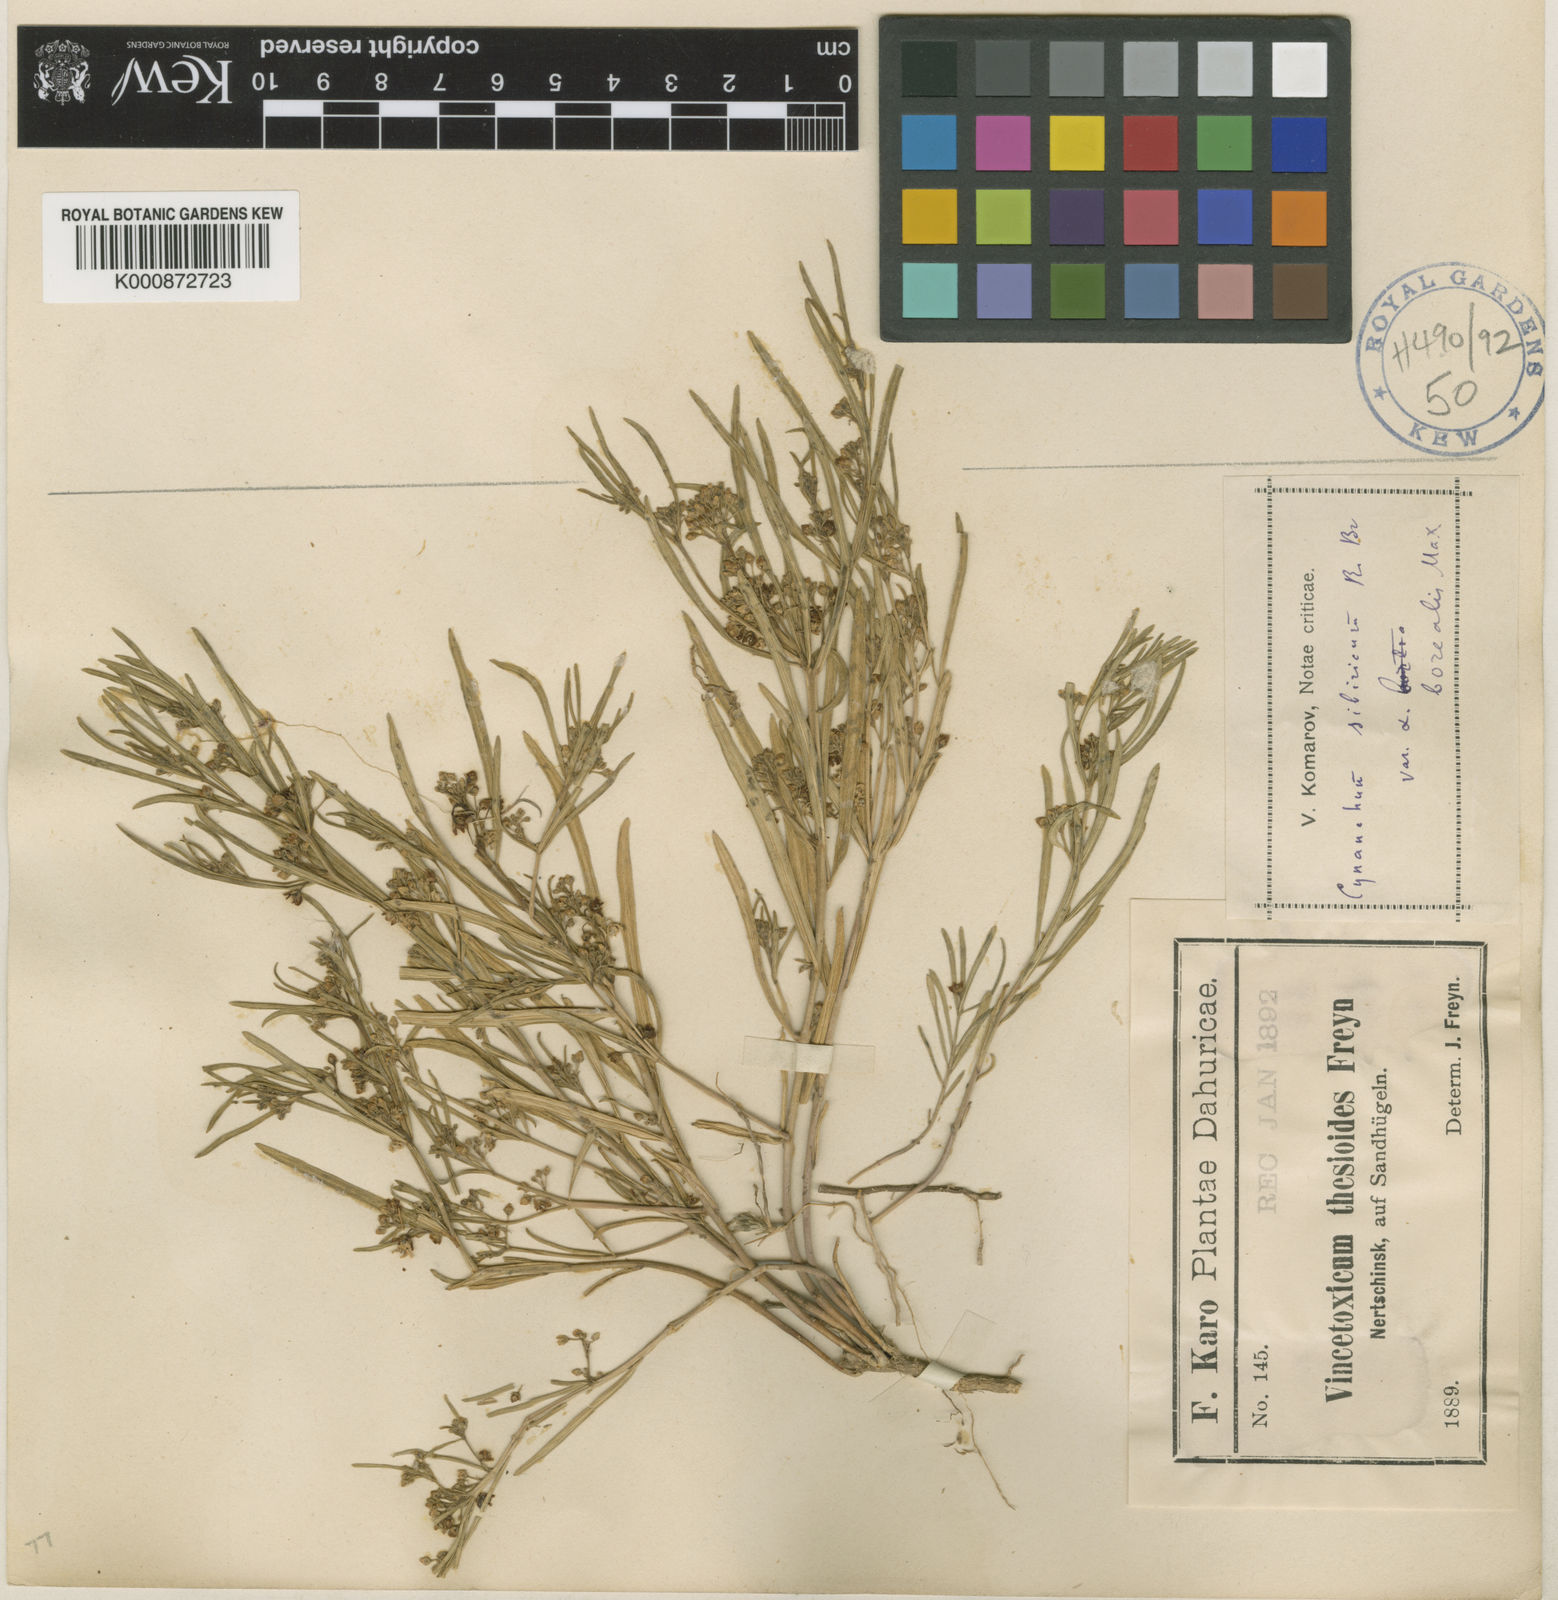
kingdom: Plantae
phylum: Tracheophyta
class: Magnoliopsida
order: Gentianales
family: Apocynaceae
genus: Cynanchum
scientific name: Cynanchum thesioides
